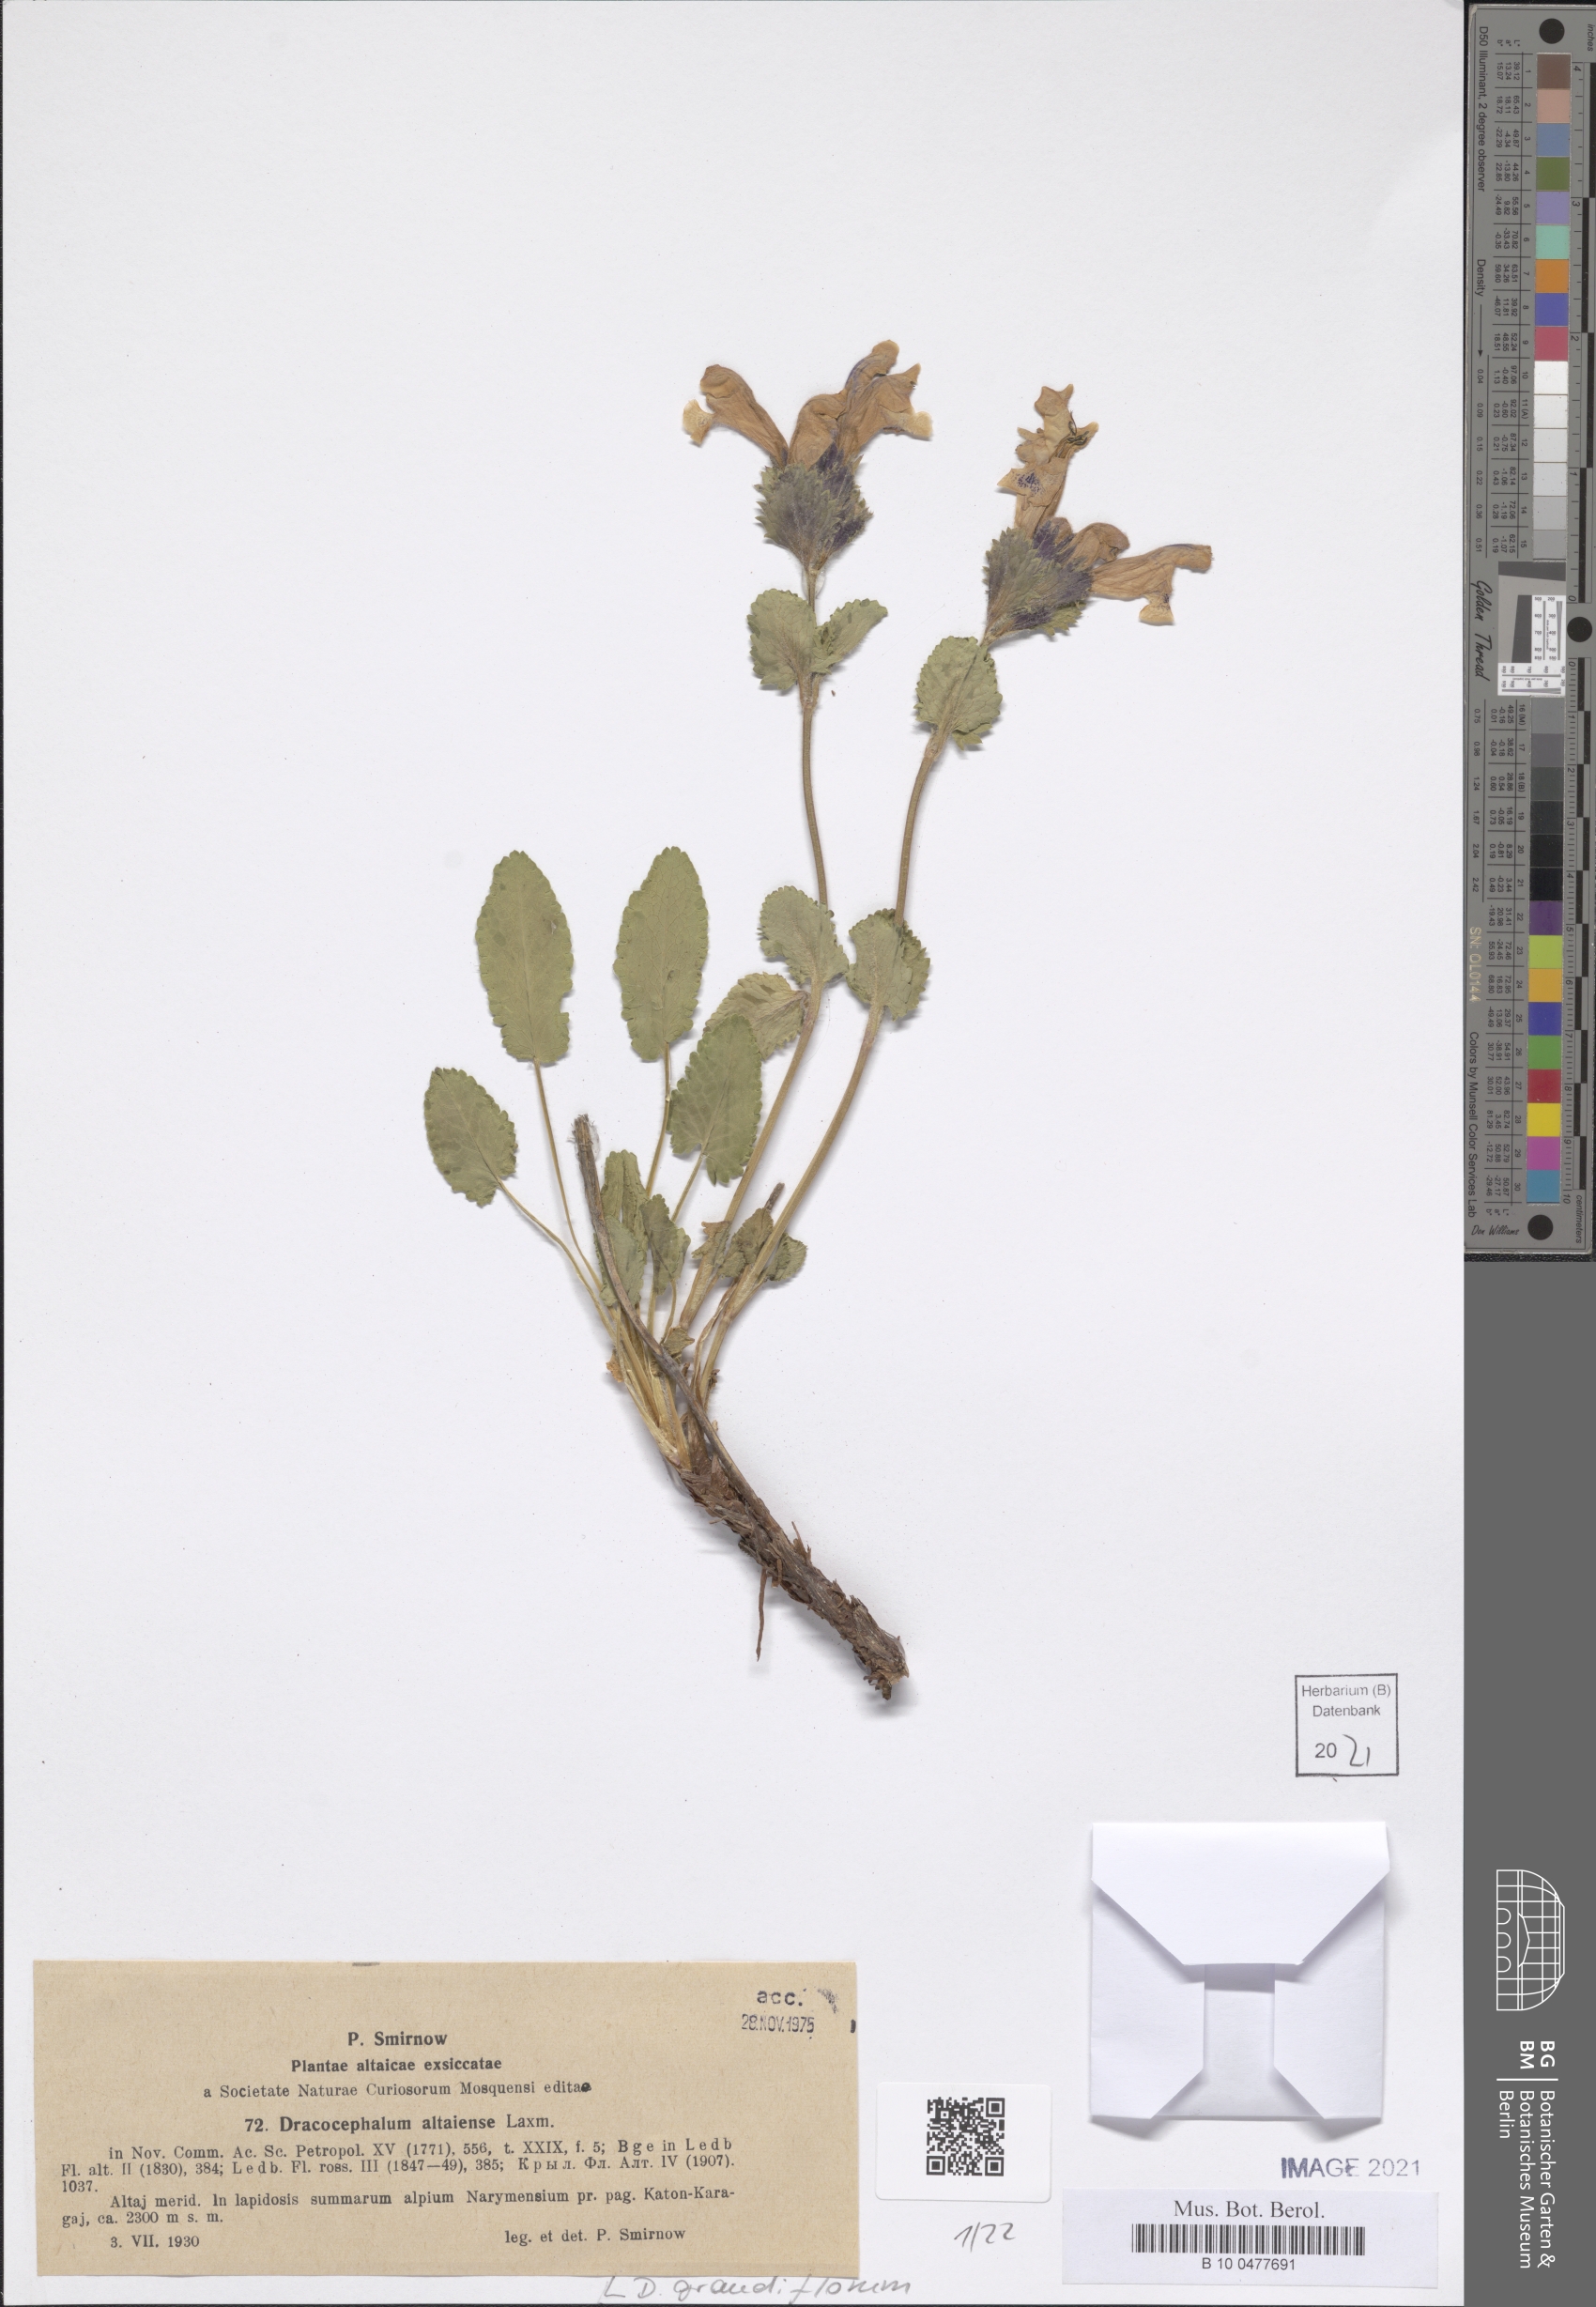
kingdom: Plantae
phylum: Tracheophyta
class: Magnoliopsida
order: Lamiales
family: Lamiaceae
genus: Dracocephalum
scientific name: Dracocephalum grandiflorum
